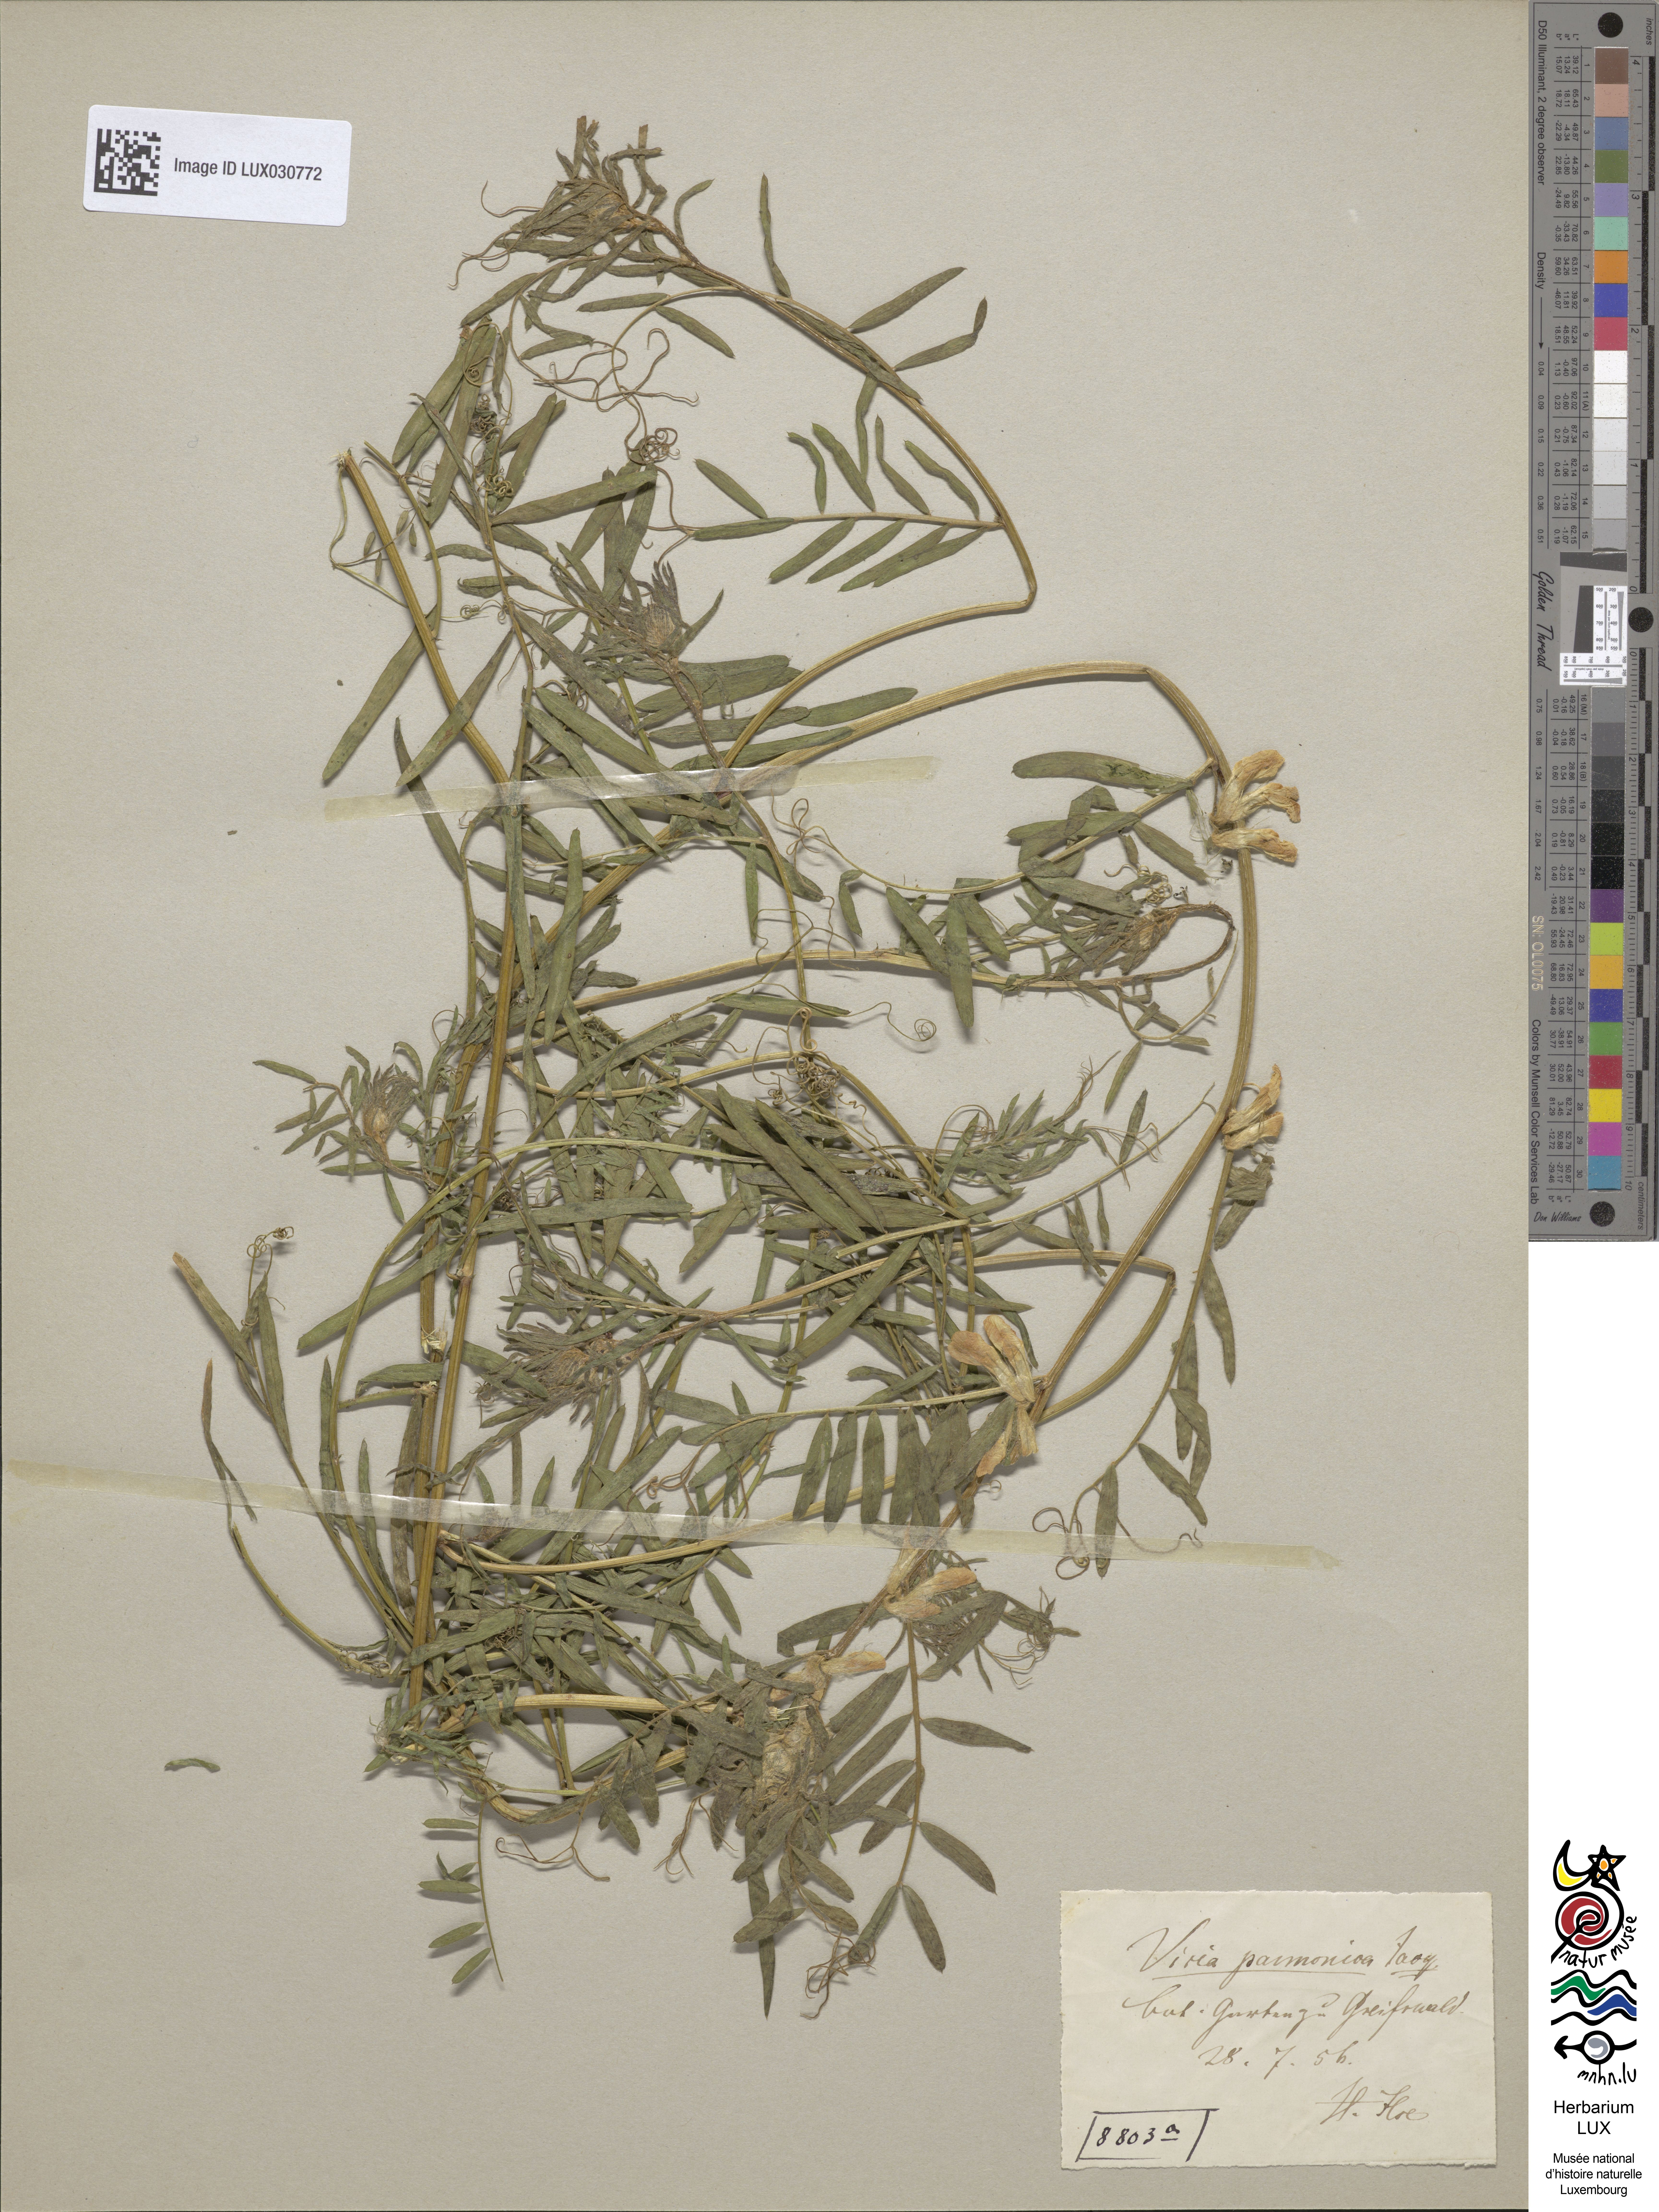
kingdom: Plantae
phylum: Tracheophyta
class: Magnoliopsida
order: Fabales
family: Fabaceae
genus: Vicia
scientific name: Vicia pannonica
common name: Hungarian vetch
